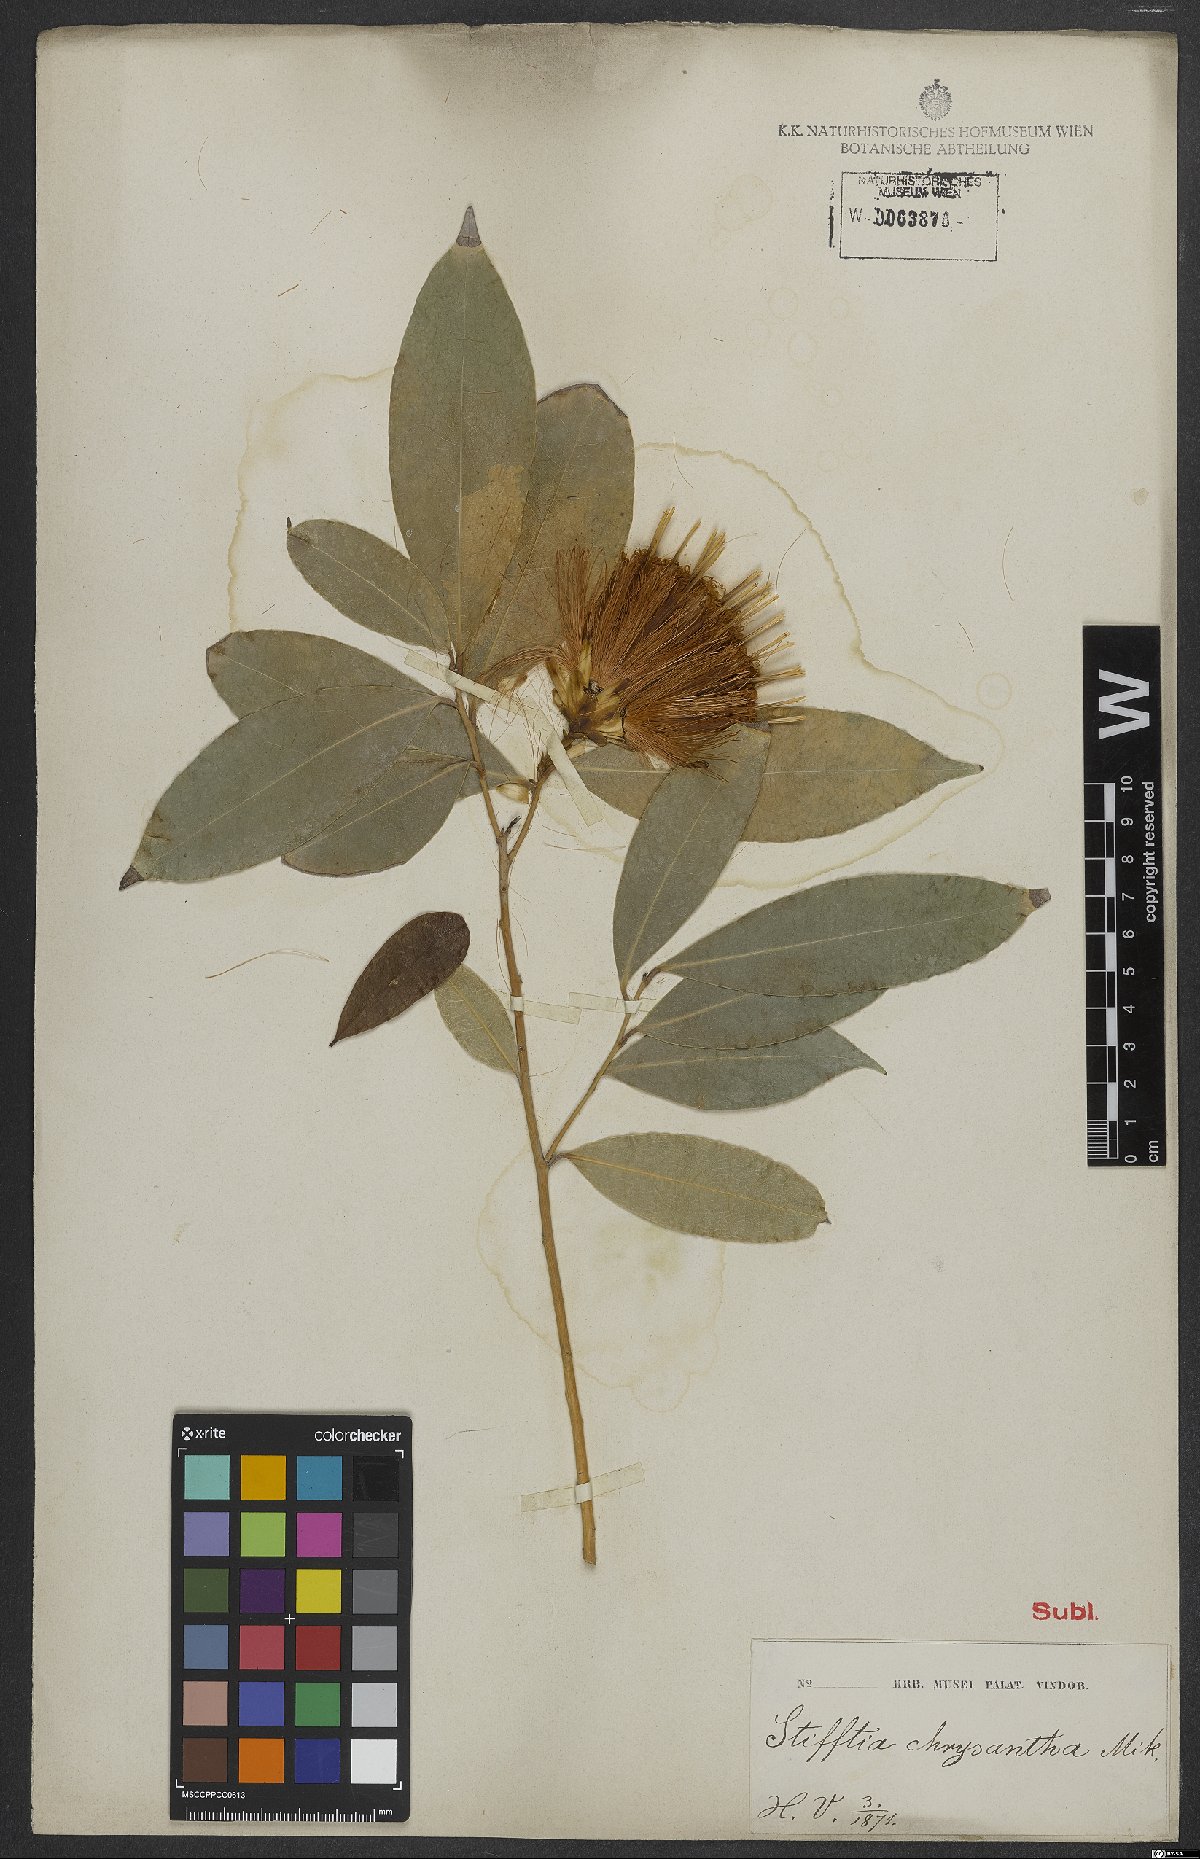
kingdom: Plantae
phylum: Tracheophyta
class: Magnoliopsida
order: Asterales
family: Asteraceae
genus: Stifftia
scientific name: Stifftia chrysantha
